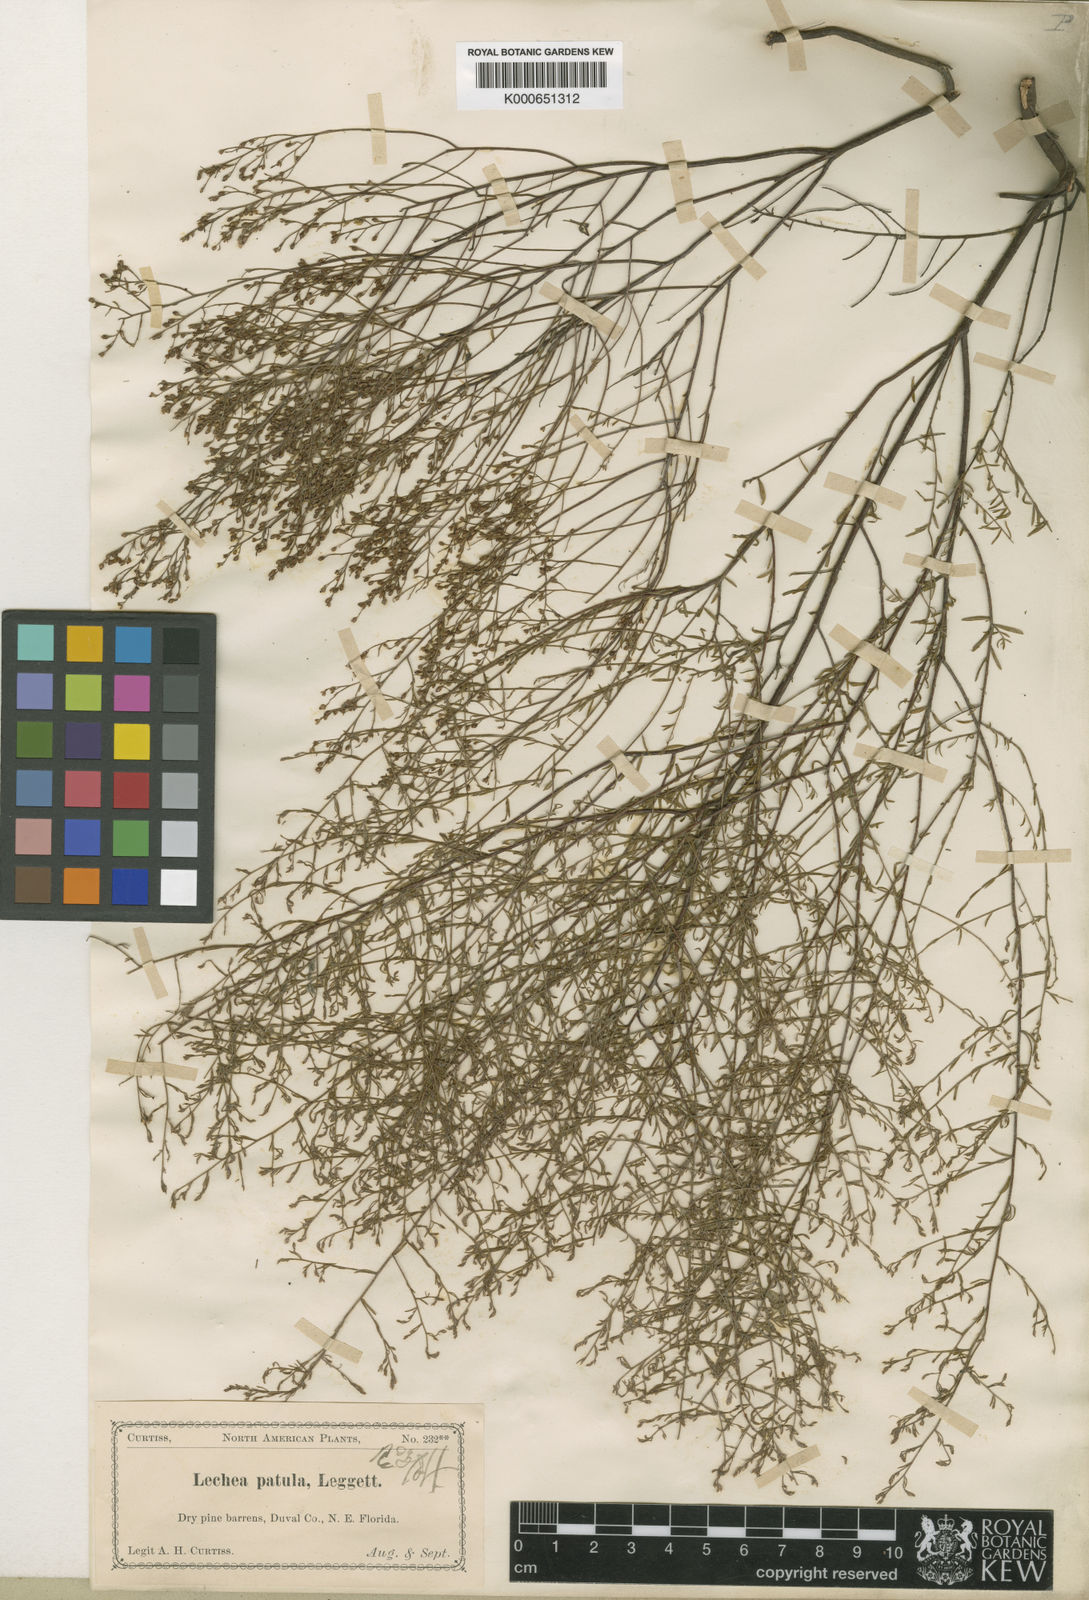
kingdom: Plantae
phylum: Tracheophyta
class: Magnoliopsida
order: Malvales
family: Cistaceae
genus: Lechea
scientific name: Lechea sessiliflora
